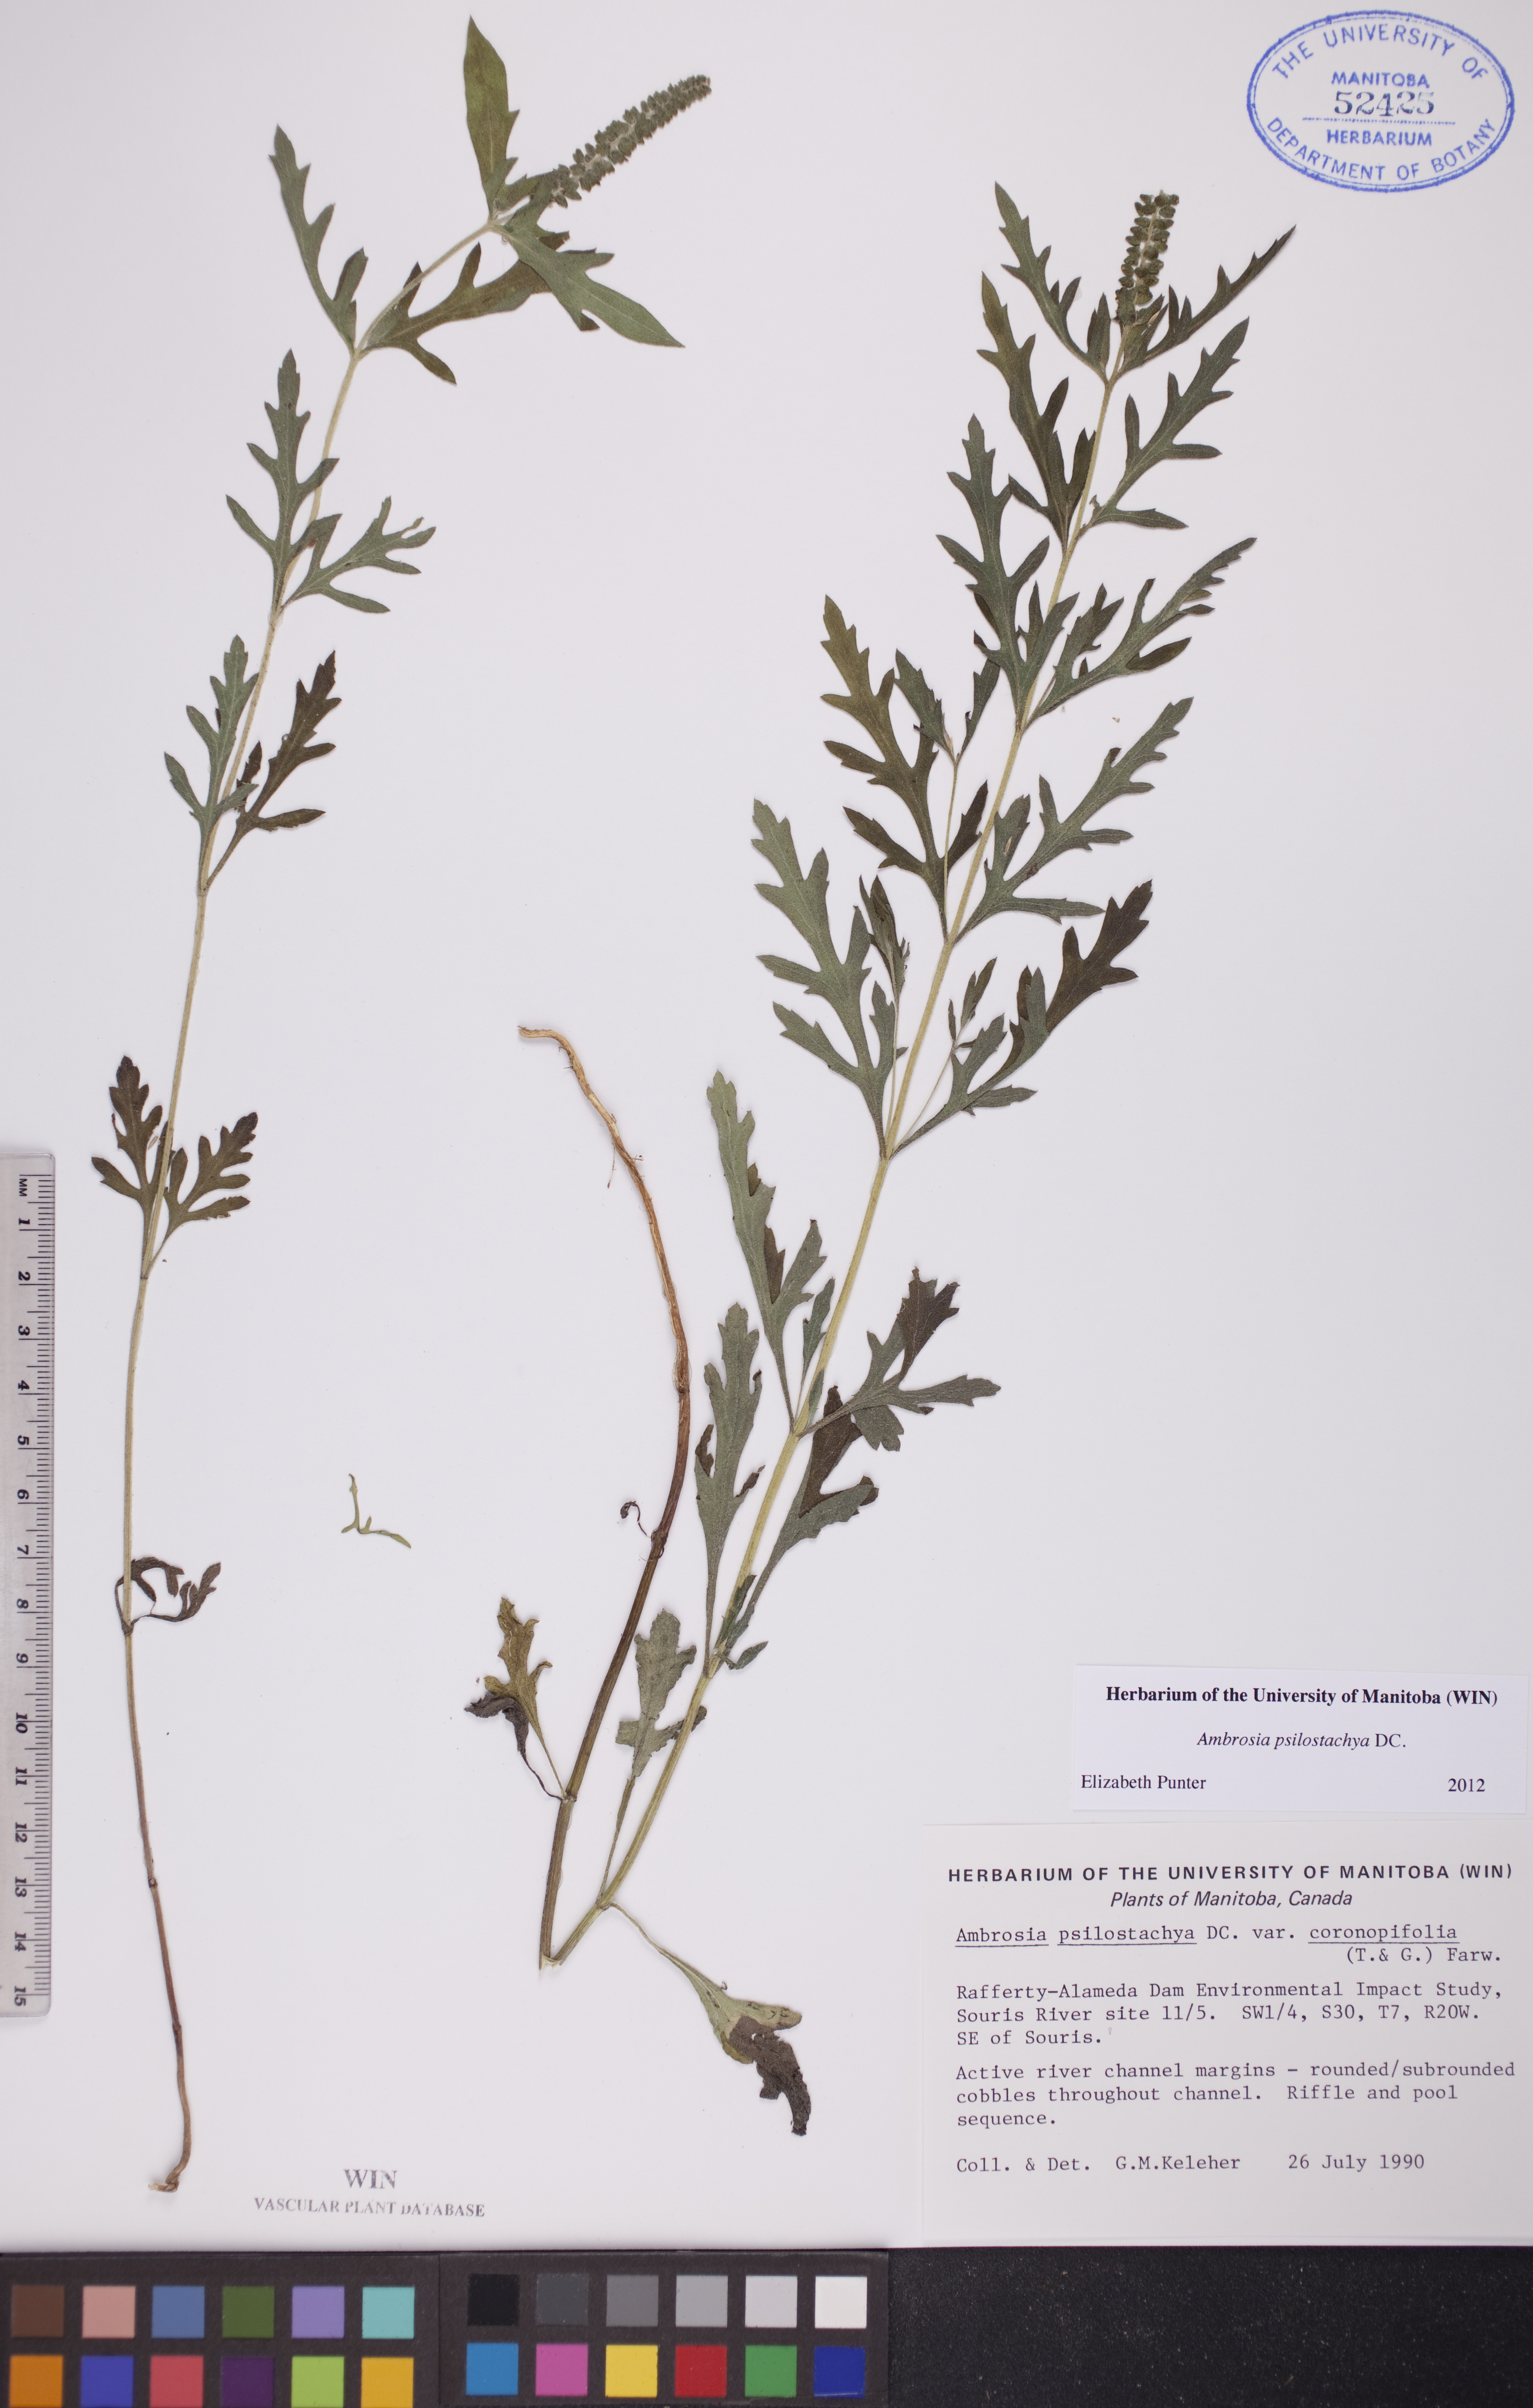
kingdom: Plantae
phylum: Tracheophyta
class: Magnoliopsida
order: Asterales
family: Asteraceae
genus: Ambrosia
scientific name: Ambrosia psilostachya
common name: Perennial ragweed
